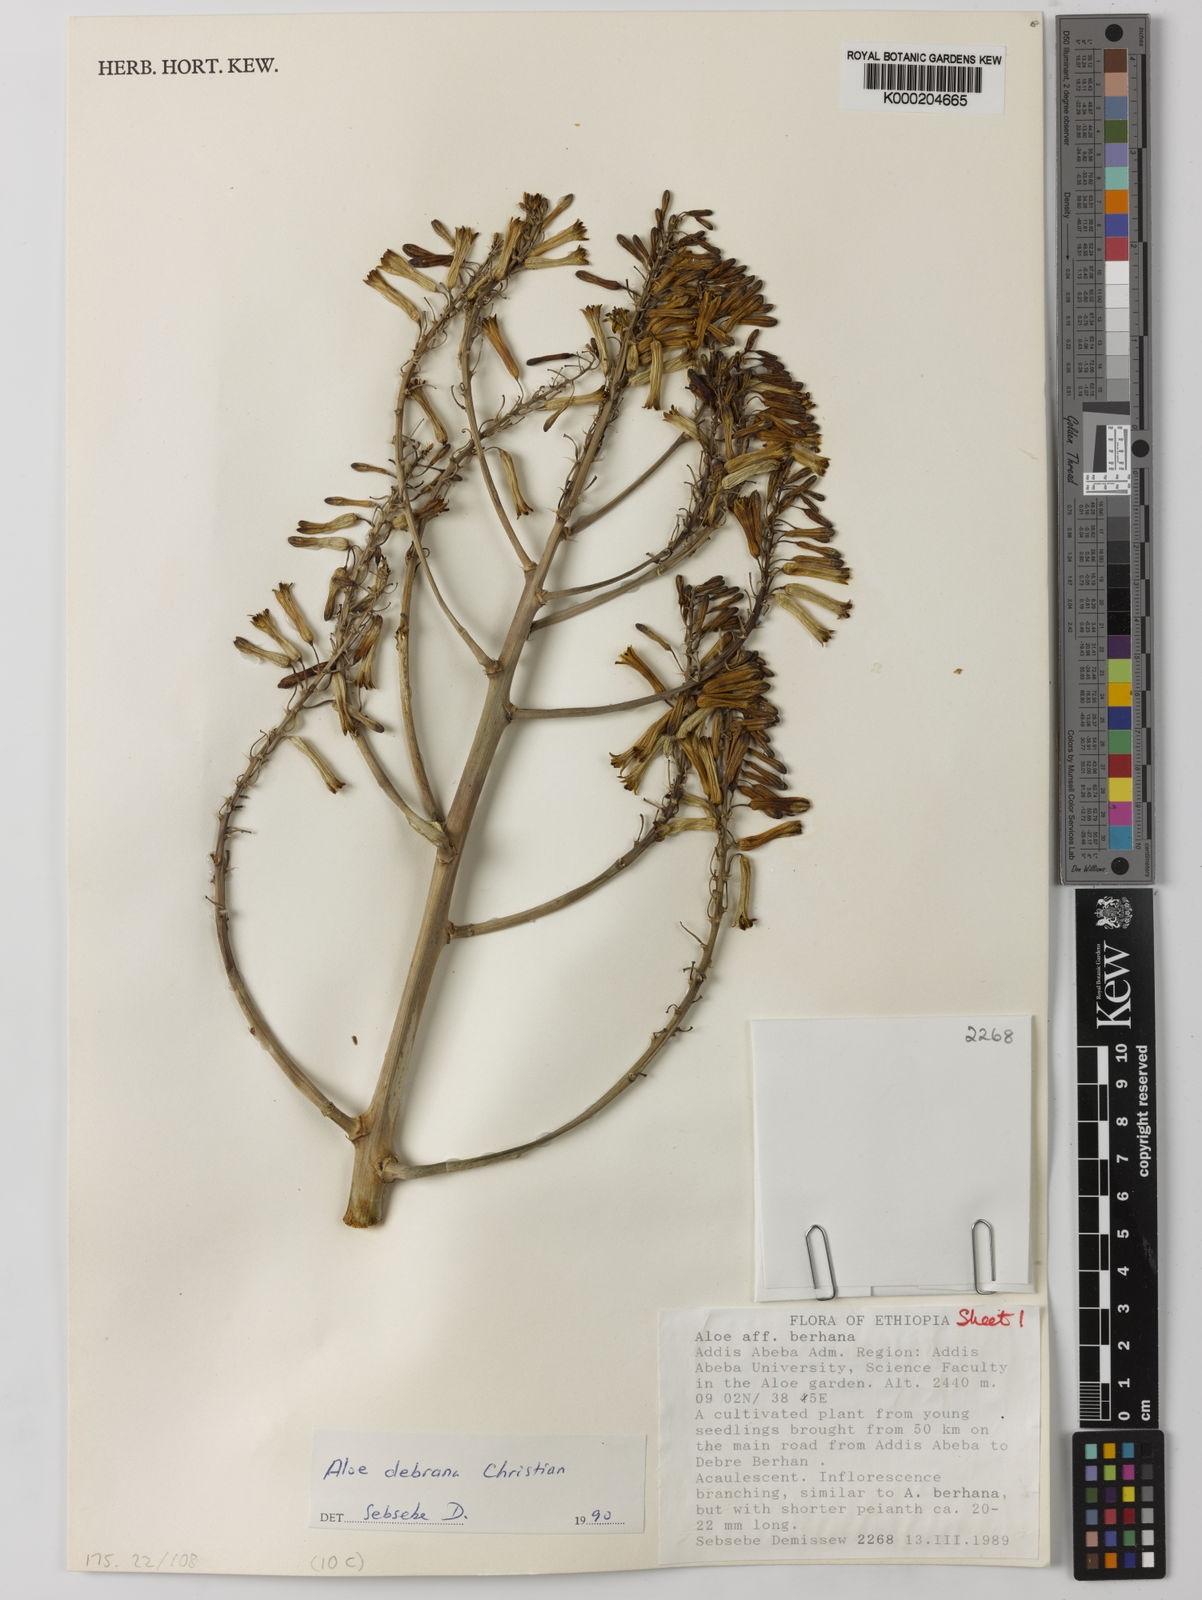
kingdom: Plantae
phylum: Tracheophyta
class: Liliopsida
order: Asparagales
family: Asphodelaceae
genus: Aloe
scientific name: Aloe debrana
